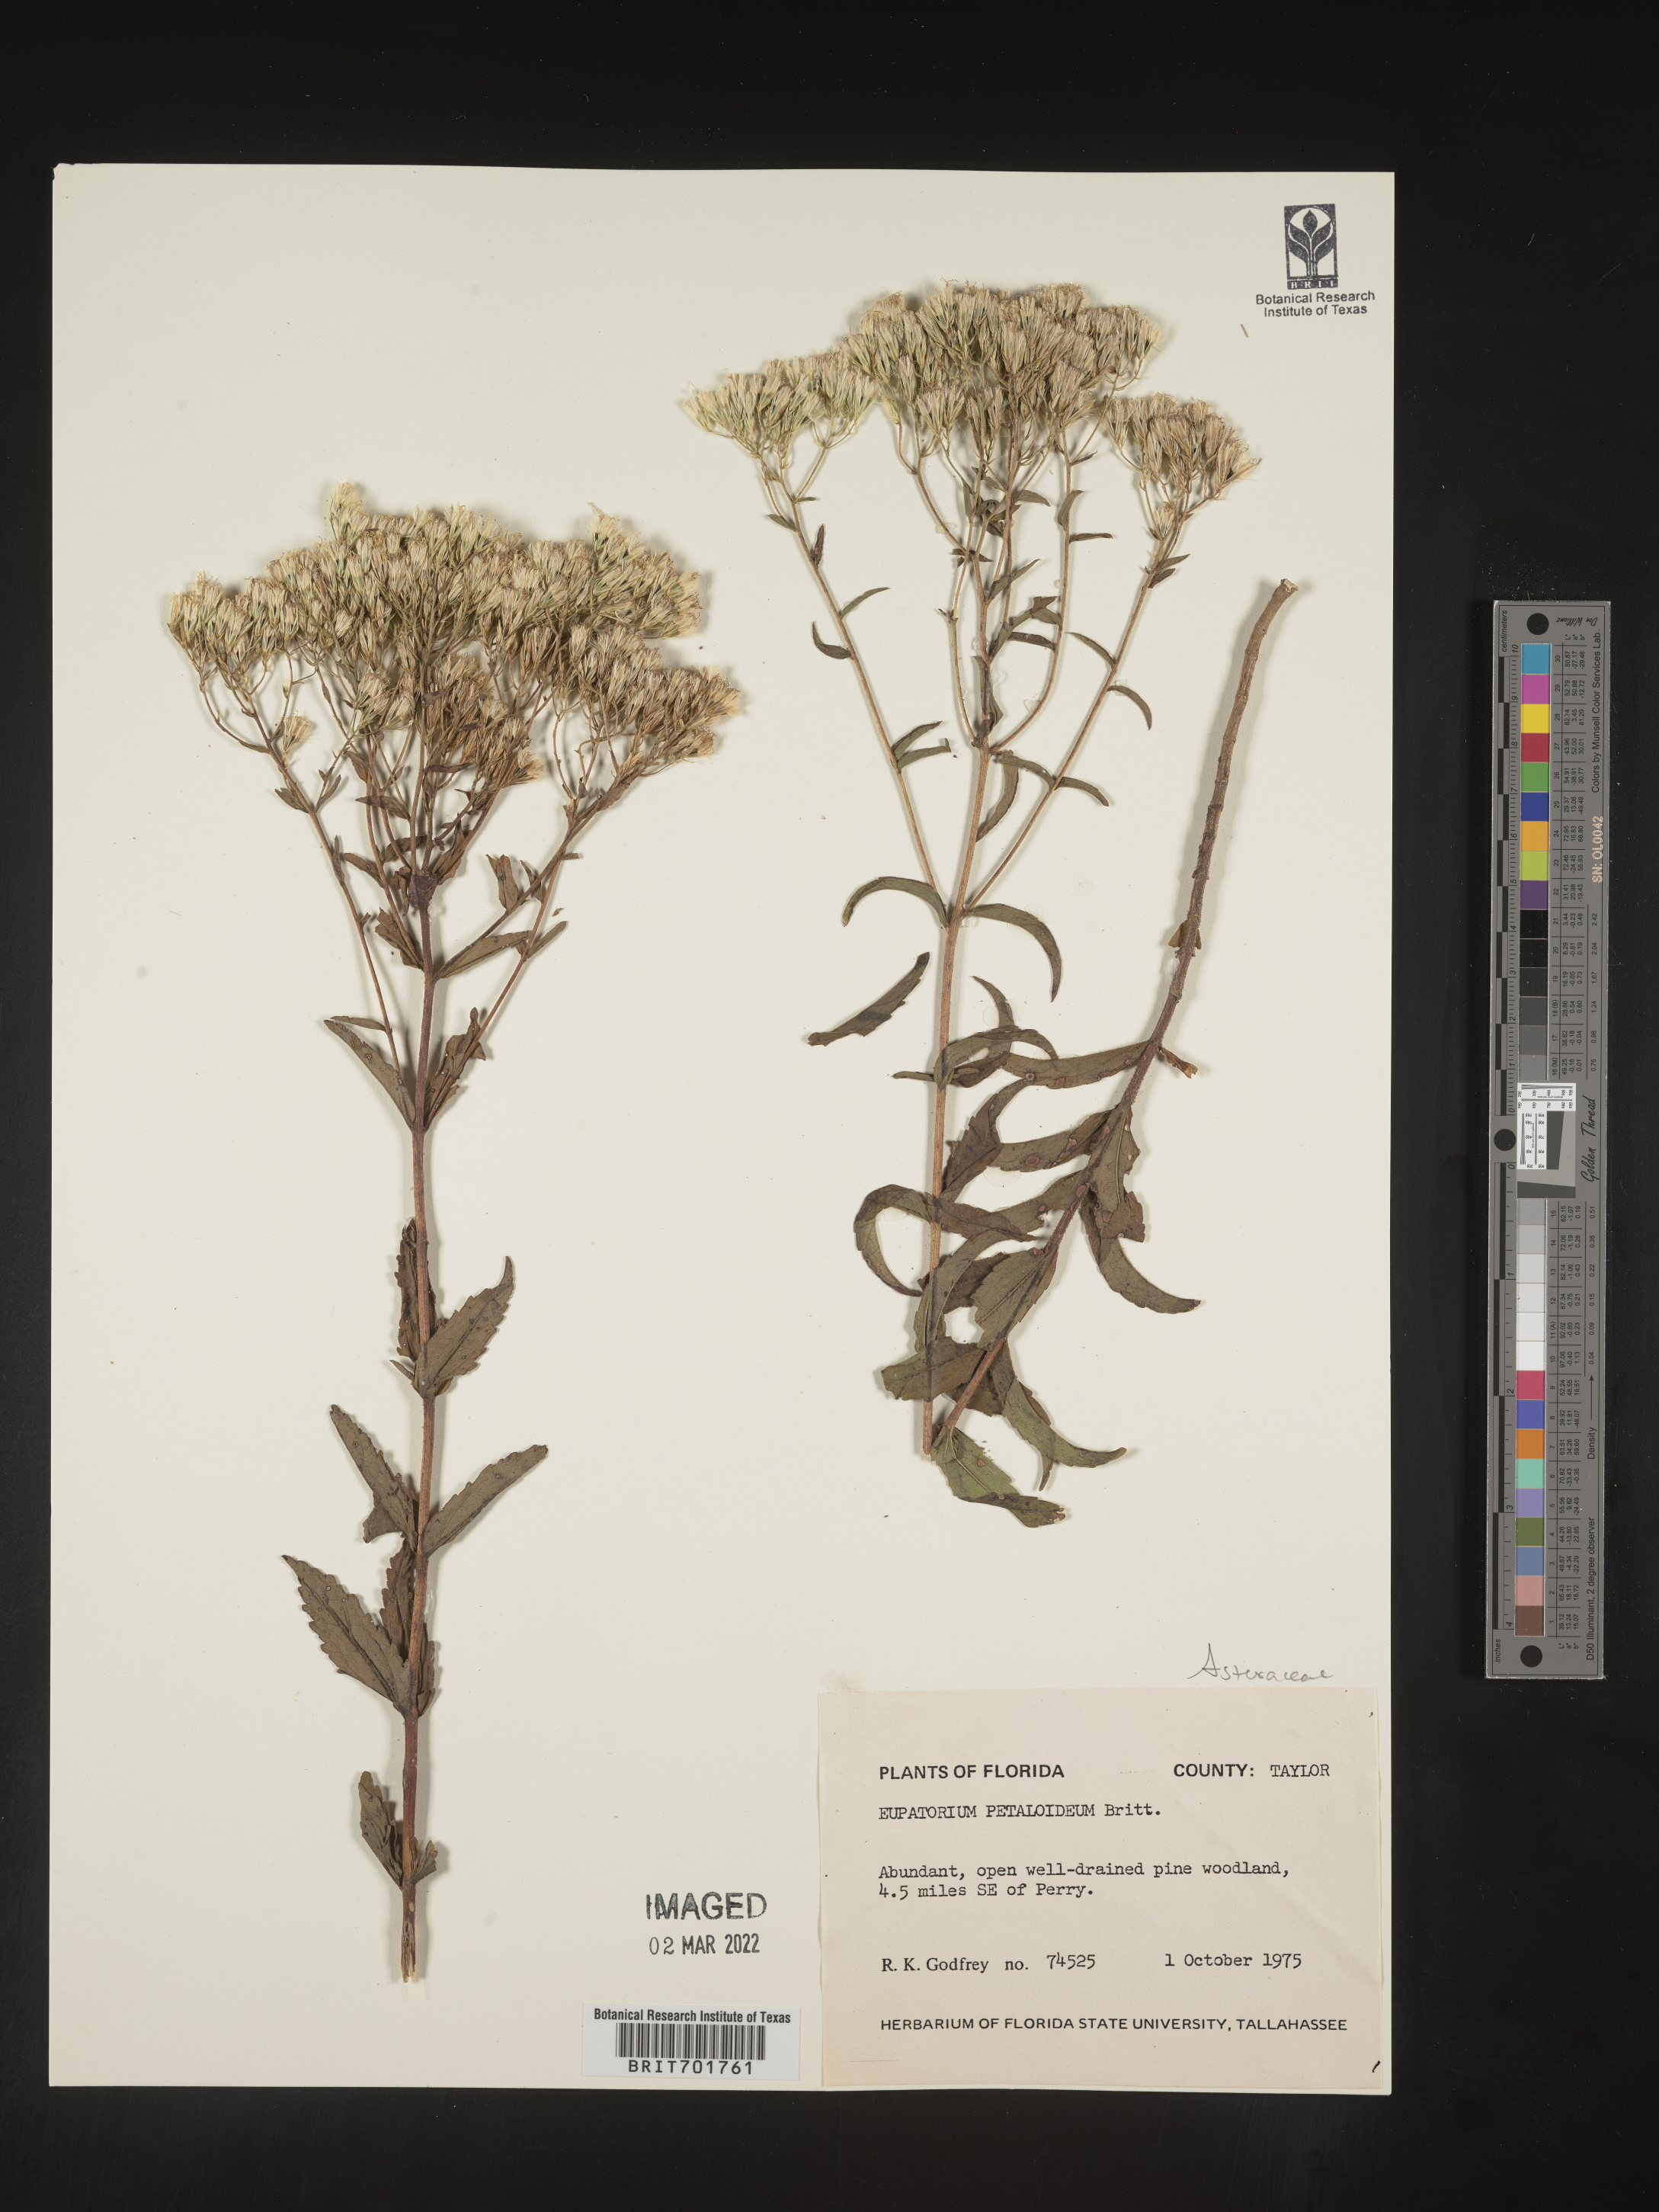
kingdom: Plantae
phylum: Tracheophyta
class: Magnoliopsida
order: Asterales
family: Asteraceae
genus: Eupatorium
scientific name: Eupatorium
